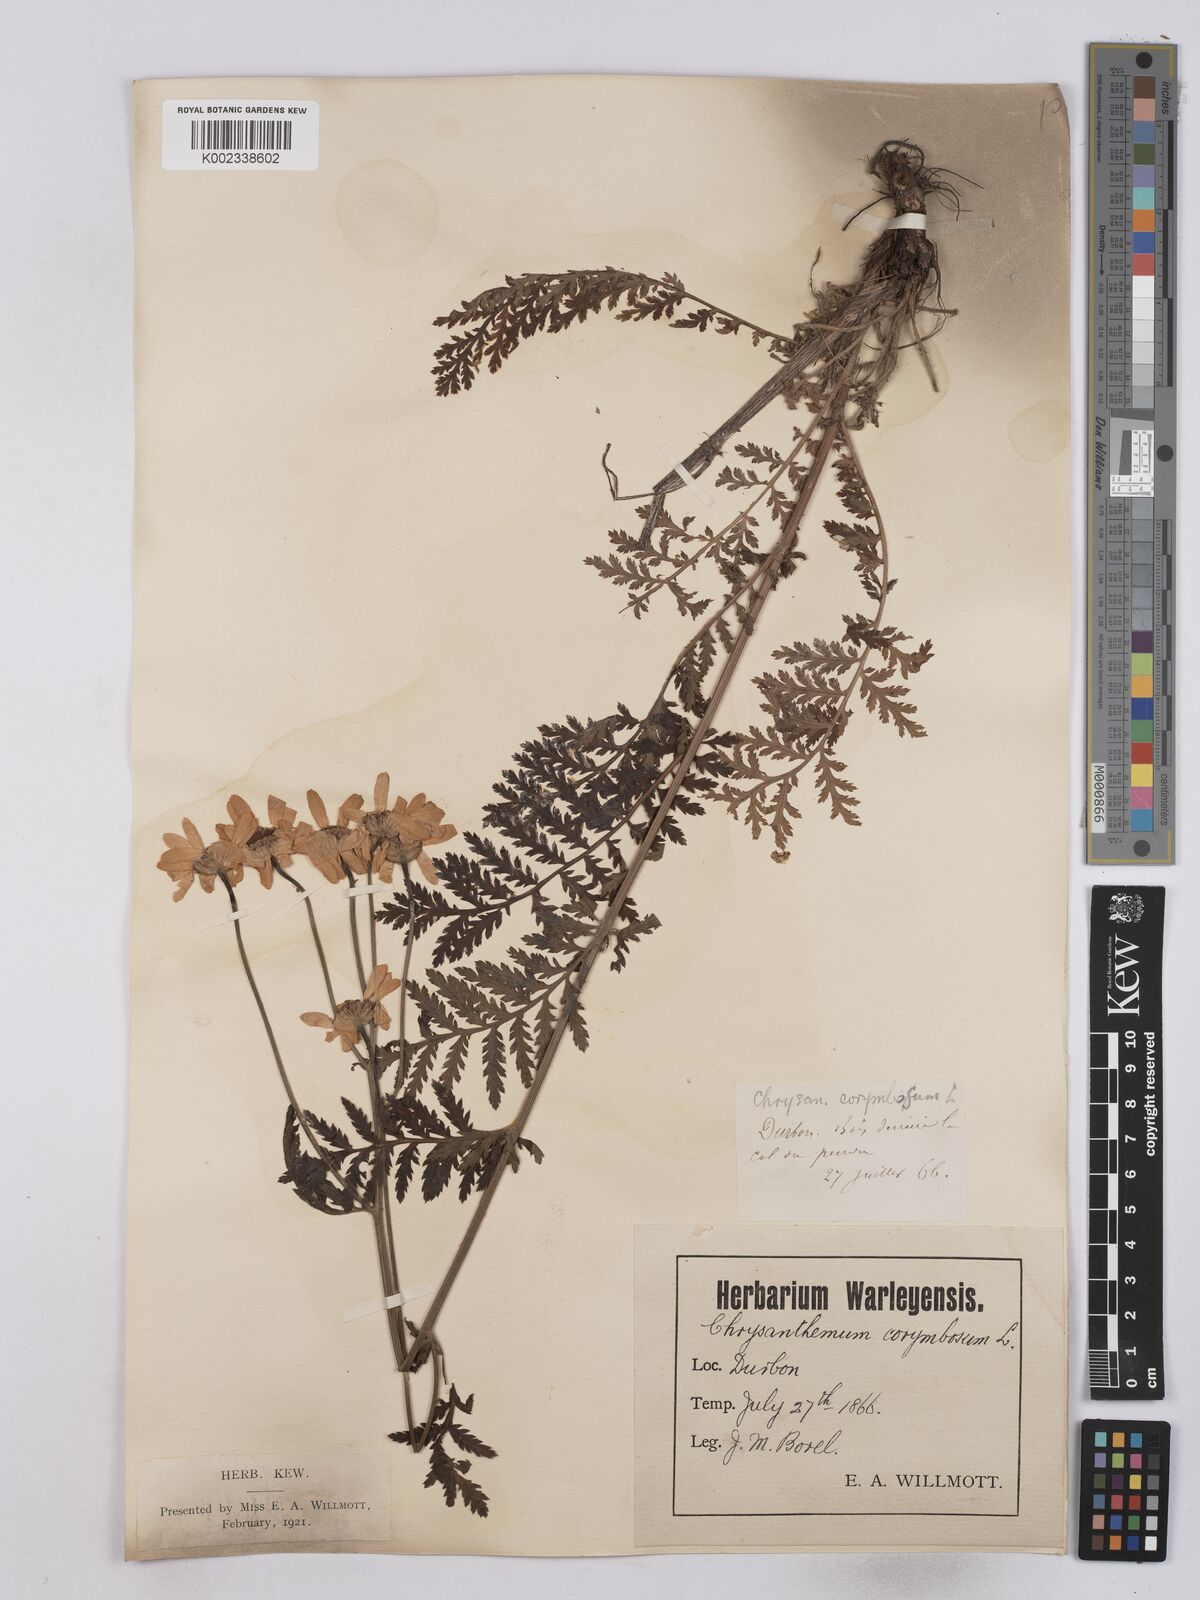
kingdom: Plantae
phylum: Tracheophyta
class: Magnoliopsida
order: Asterales
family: Asteraceae
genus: Tanacetum
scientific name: Tanacetum corymbosum
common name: Scentless feverfew
